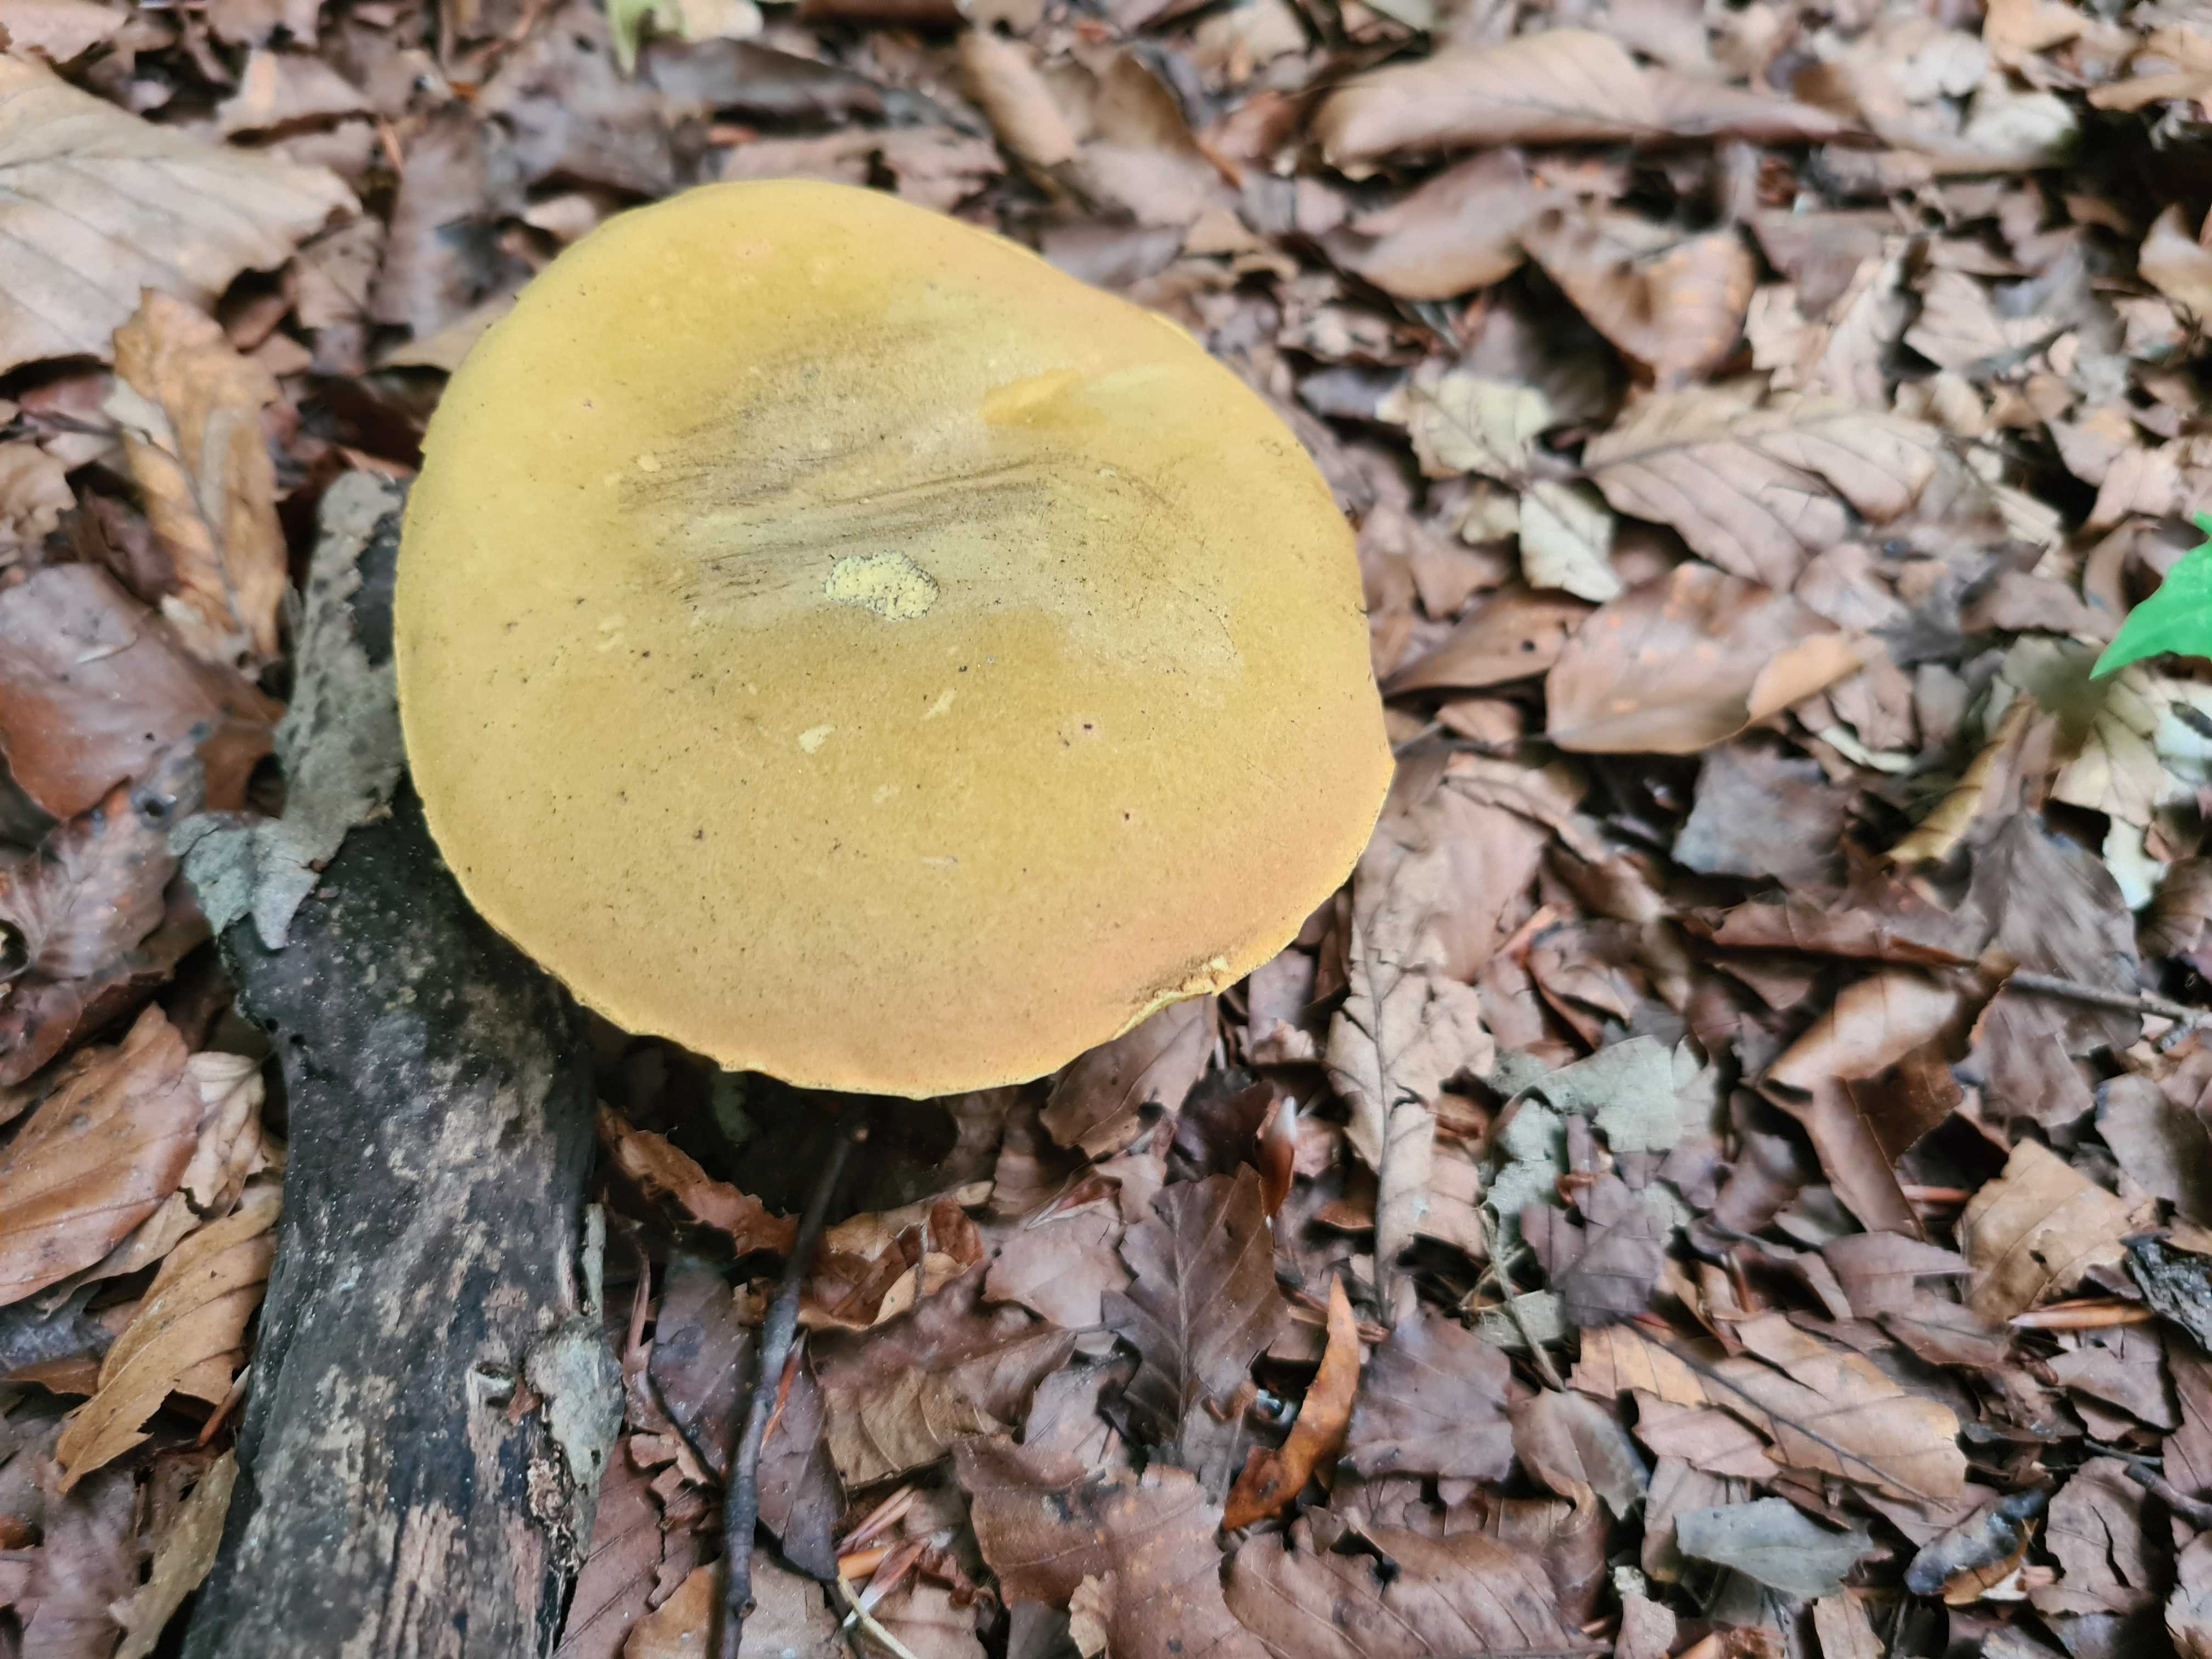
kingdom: Fungi
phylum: Basidiomycota
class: Agaricomycetes
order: Boletales
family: Boletaceae
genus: Suillellus
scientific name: Suillellus luridus
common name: netstokket indigorørhat
